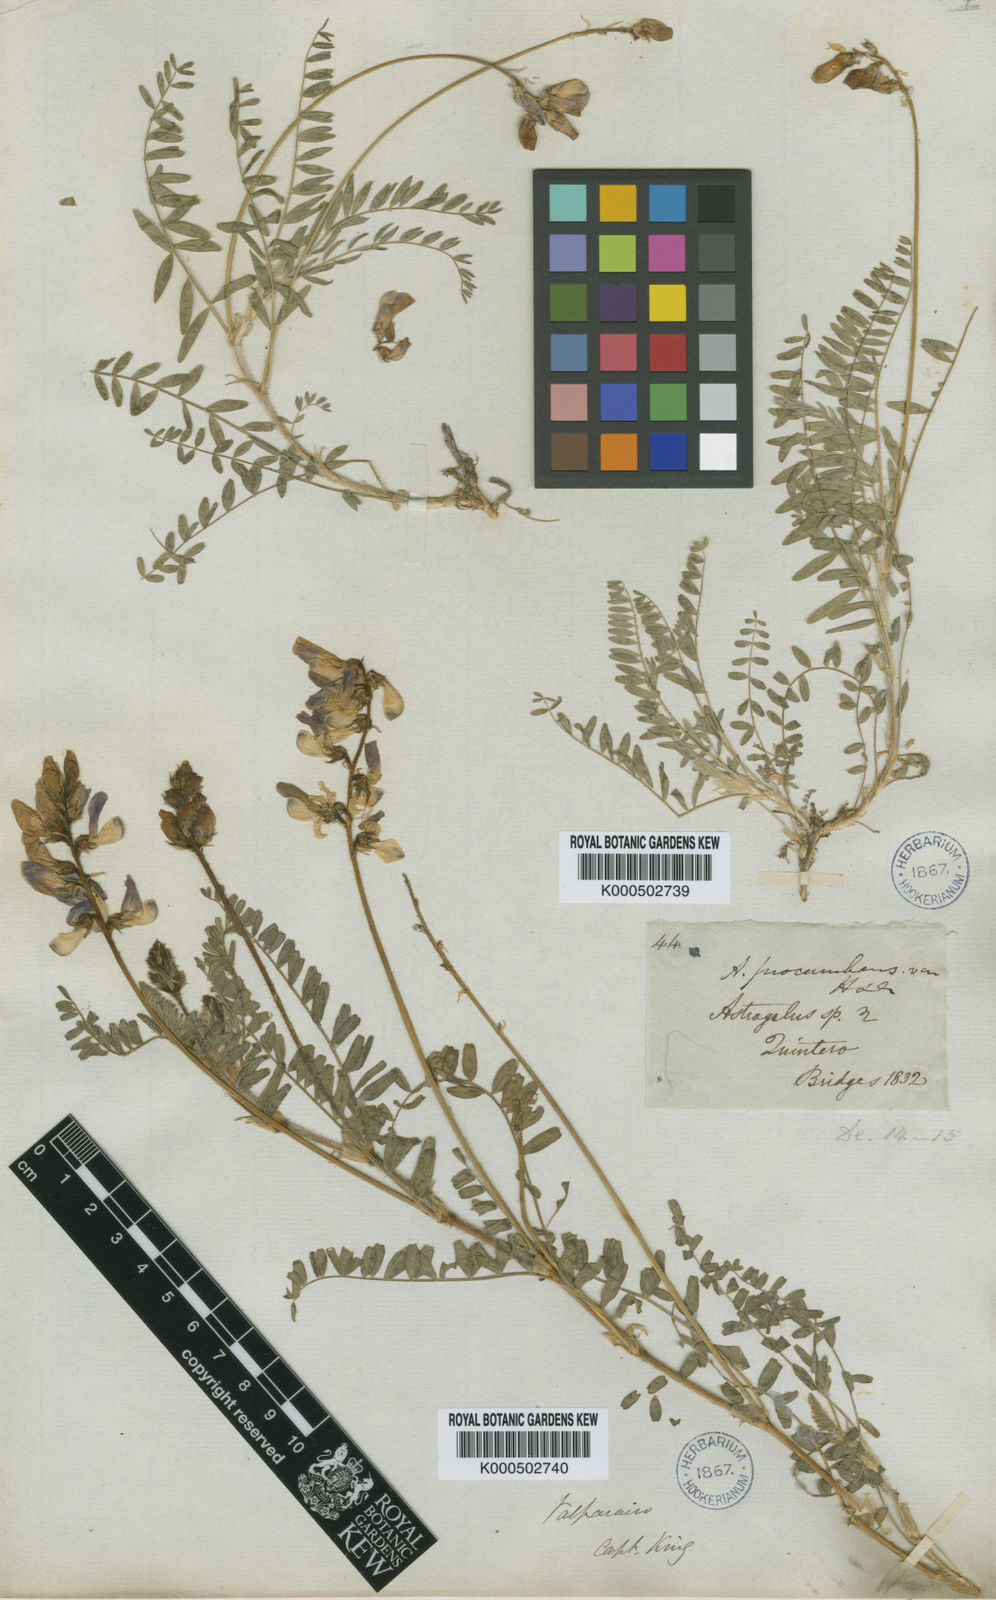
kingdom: Plantae
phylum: Tracheophyta
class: Magnoliopsida
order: Fabales
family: Fabaceae
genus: Astragalus
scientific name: Astragalus amatus
